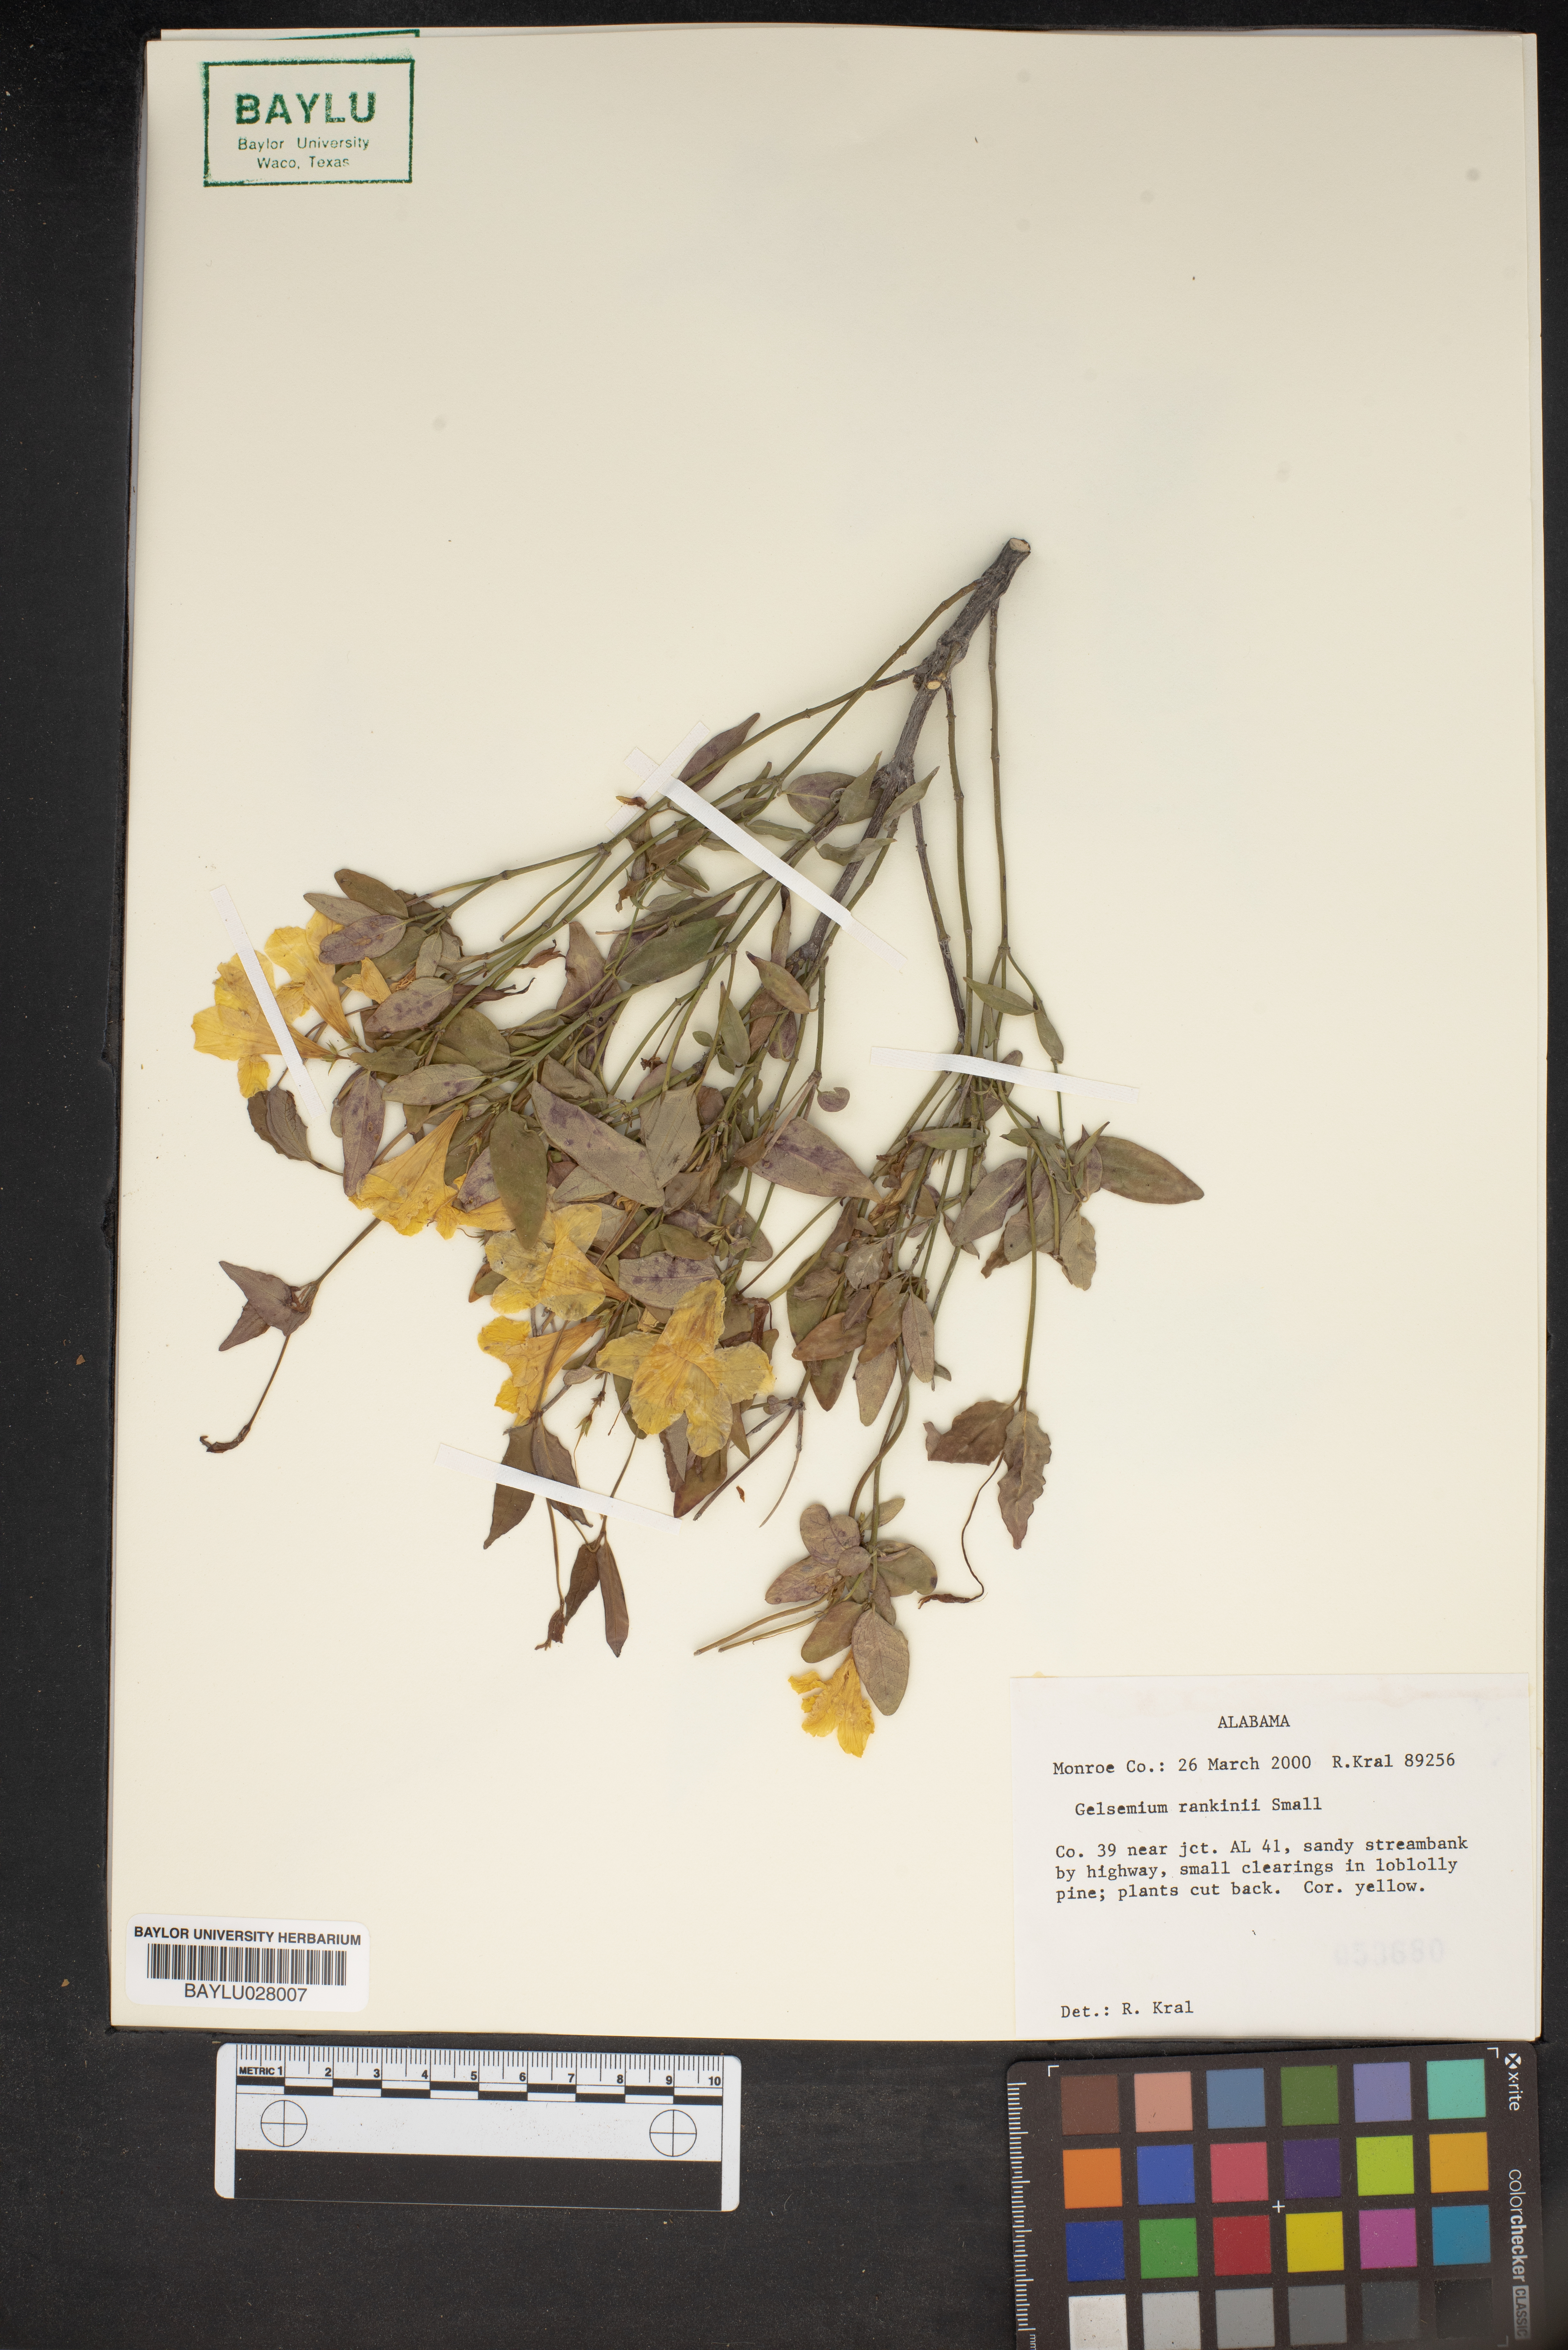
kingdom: Plantae
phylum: Tracheophyta
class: Magnoliopsida
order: Gentianales
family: Gelsemiaceae
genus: Gelsemium
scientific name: Gelsemium rankinii
